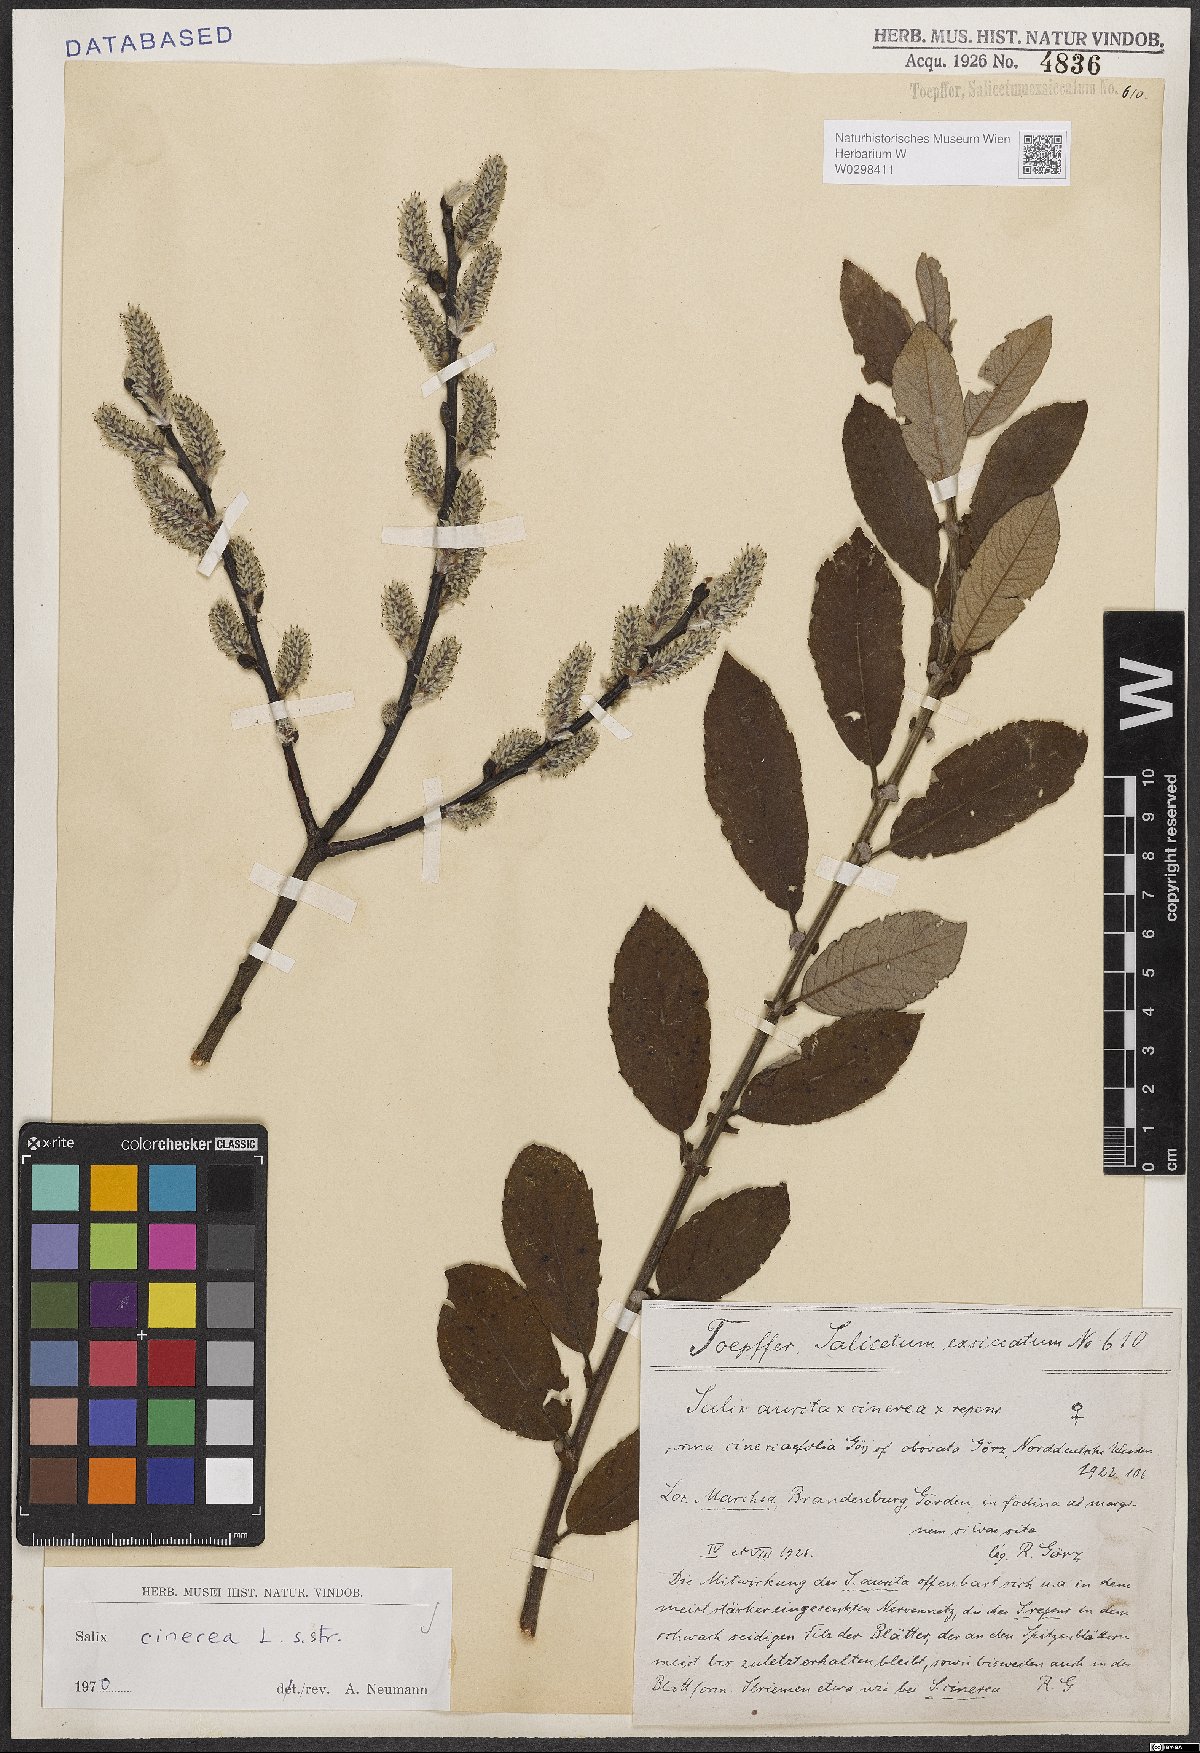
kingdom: Plantae
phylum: Tracheophyta
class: Magnoliopsida
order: Malpighiales
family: Salicaceae
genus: Salix
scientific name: Salix cinerea
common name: Common sallow
